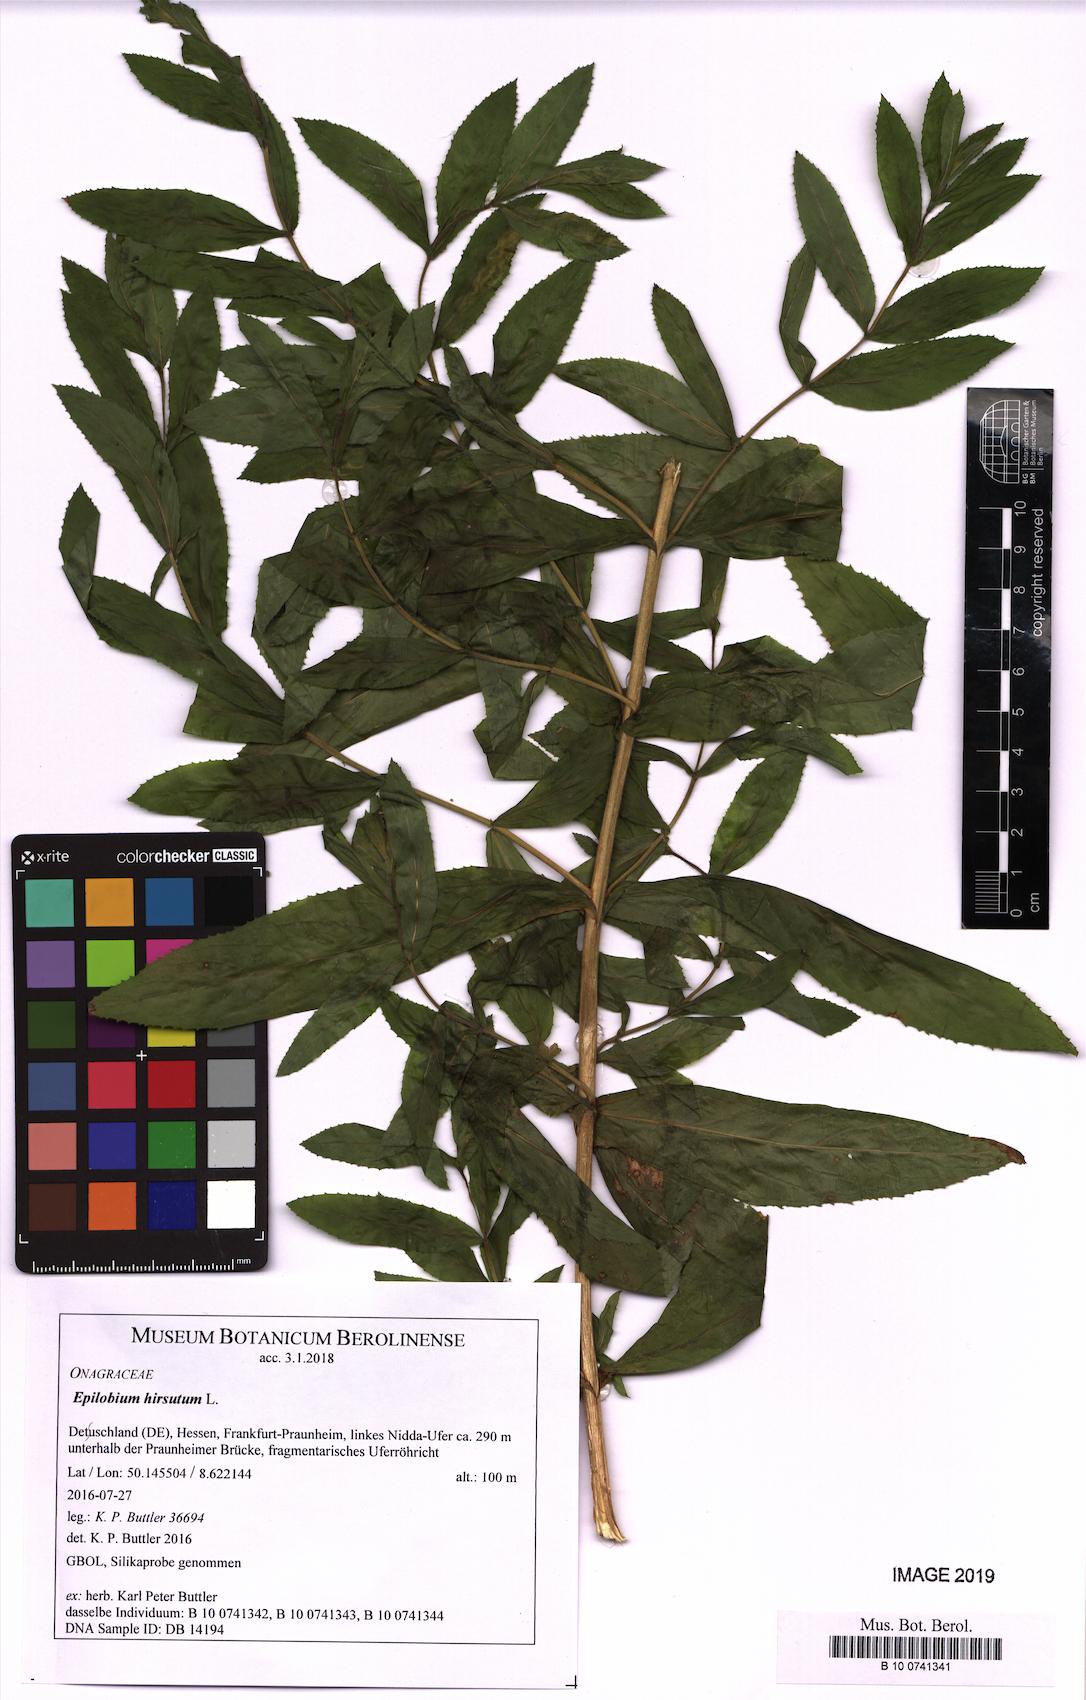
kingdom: Plantae
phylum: Tracheophyta
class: Magnoliopsida
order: Myrtales
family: Onagraceae
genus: Epilobium
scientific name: Epilobium hirsutum
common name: Great willowherb
